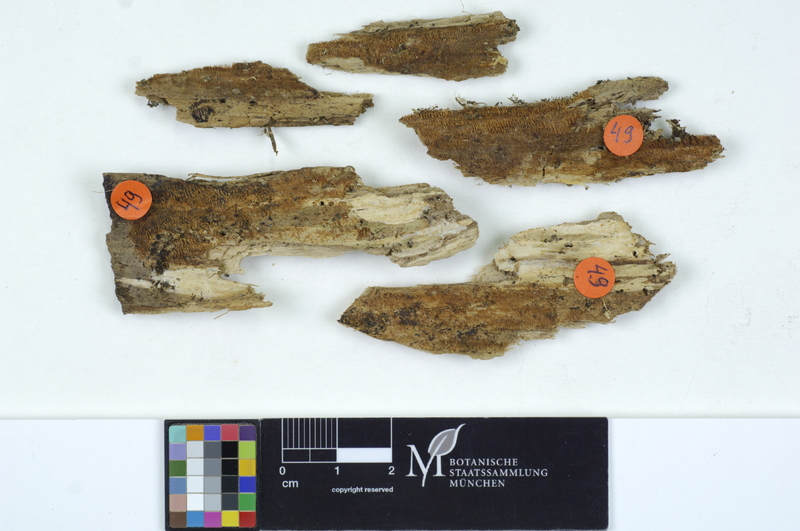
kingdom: Plantae
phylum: Tracheophyta
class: Pinopsida
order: Pinales
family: Pinaceae
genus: Abies
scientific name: Abies alba
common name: Silver fir
